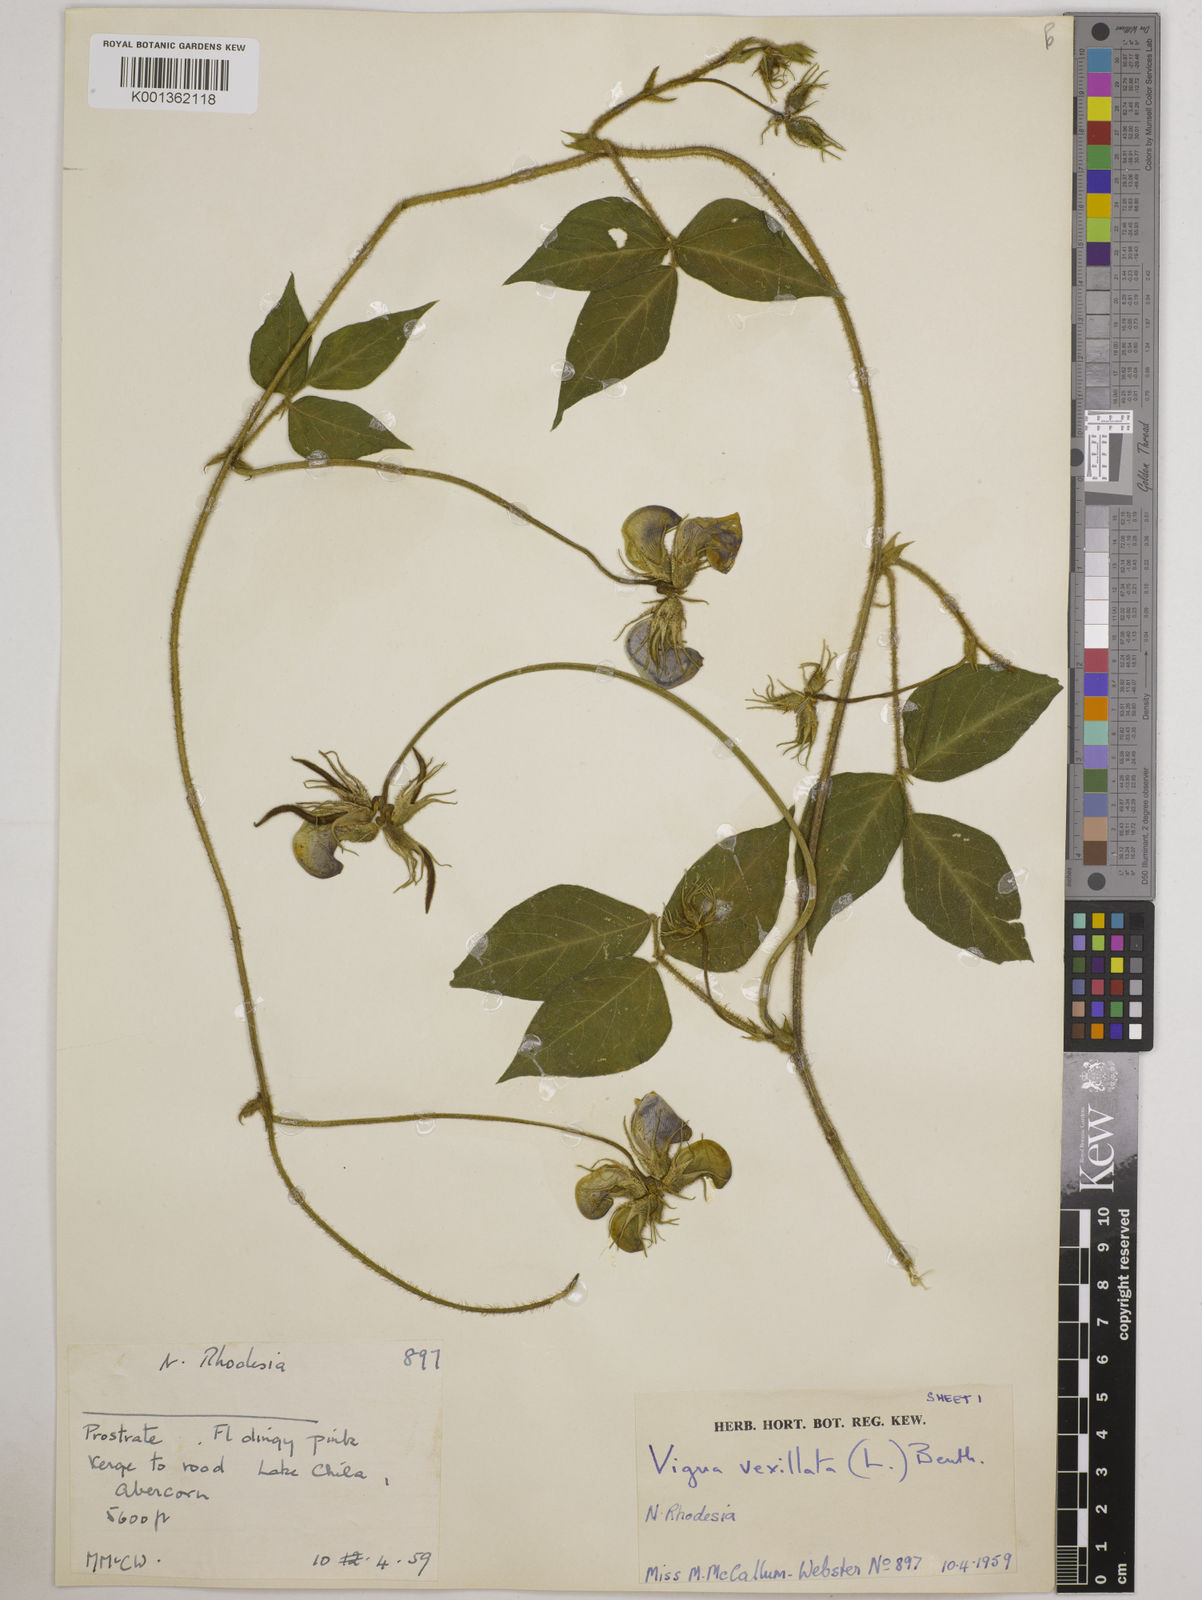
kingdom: Plantae
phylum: Tracheophyta
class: Magnoliopsida
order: Fabales
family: Fabaceae
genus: Vigna
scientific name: Vigna vexillata
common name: Zombi pea
